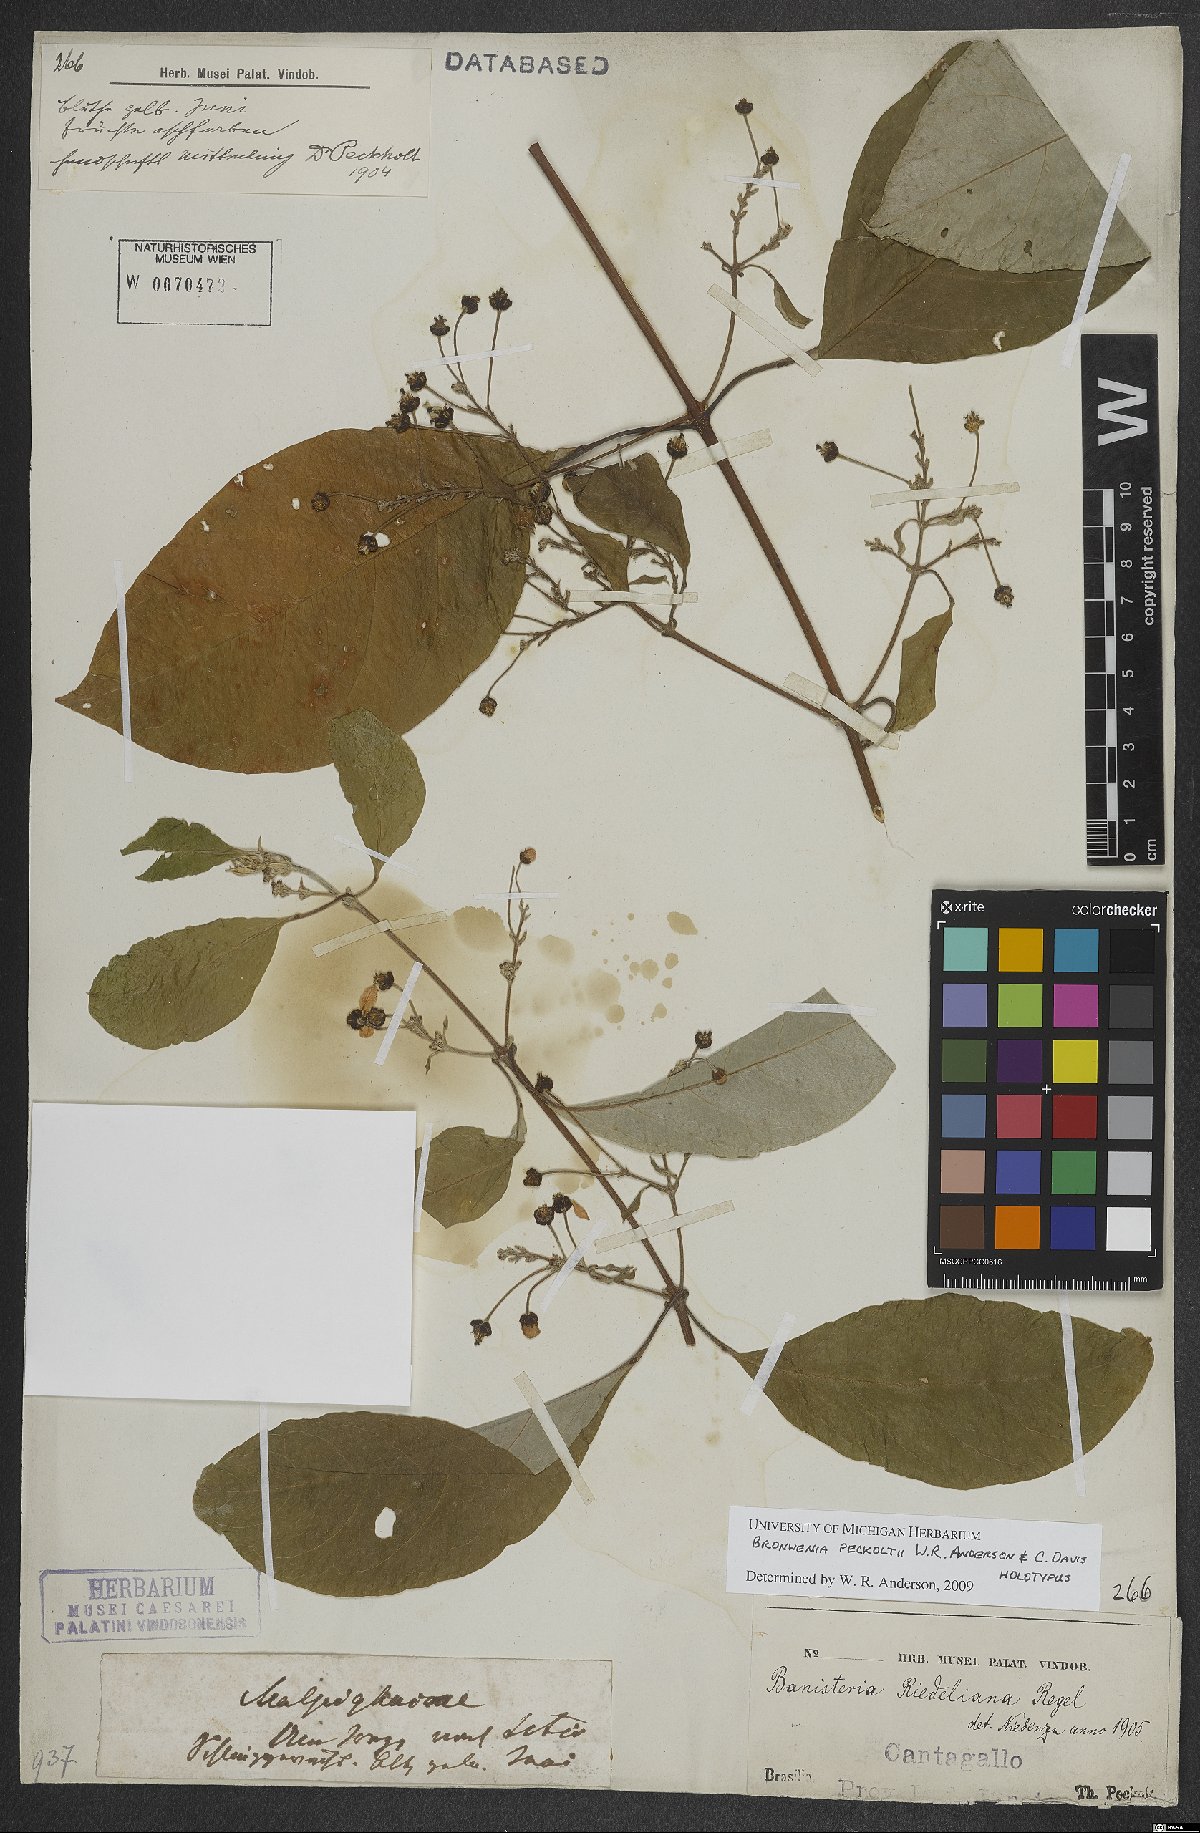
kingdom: Plantae
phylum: Tracheophyta
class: Magnoliopsida
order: Malpighiales
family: Malpighiaceae
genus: Bronwenia
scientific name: Bronwenia peckoltii
